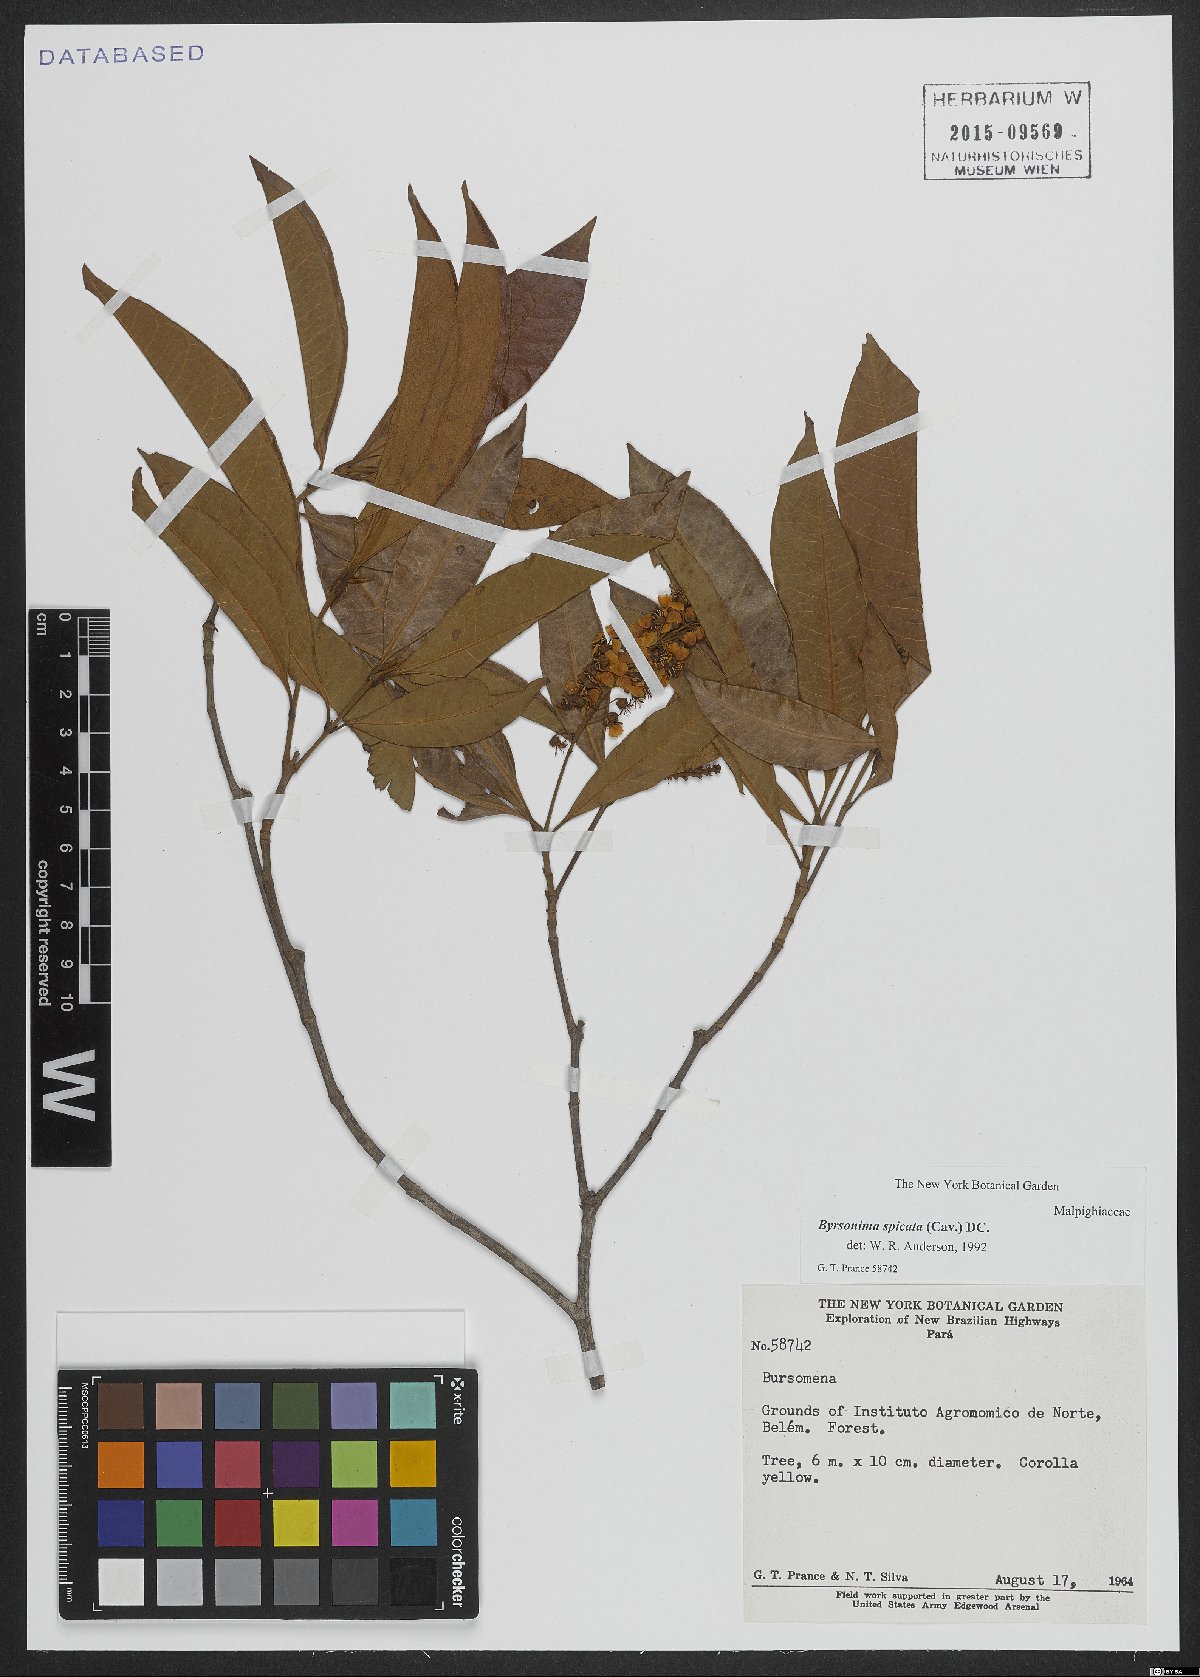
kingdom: Plantae
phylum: Tracheophyta
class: Magnoliopsida
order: Malpighiales
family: Malpighiaceae
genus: Byrsonima
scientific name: Byrsonima spicata
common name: Murixi-bark-tree
